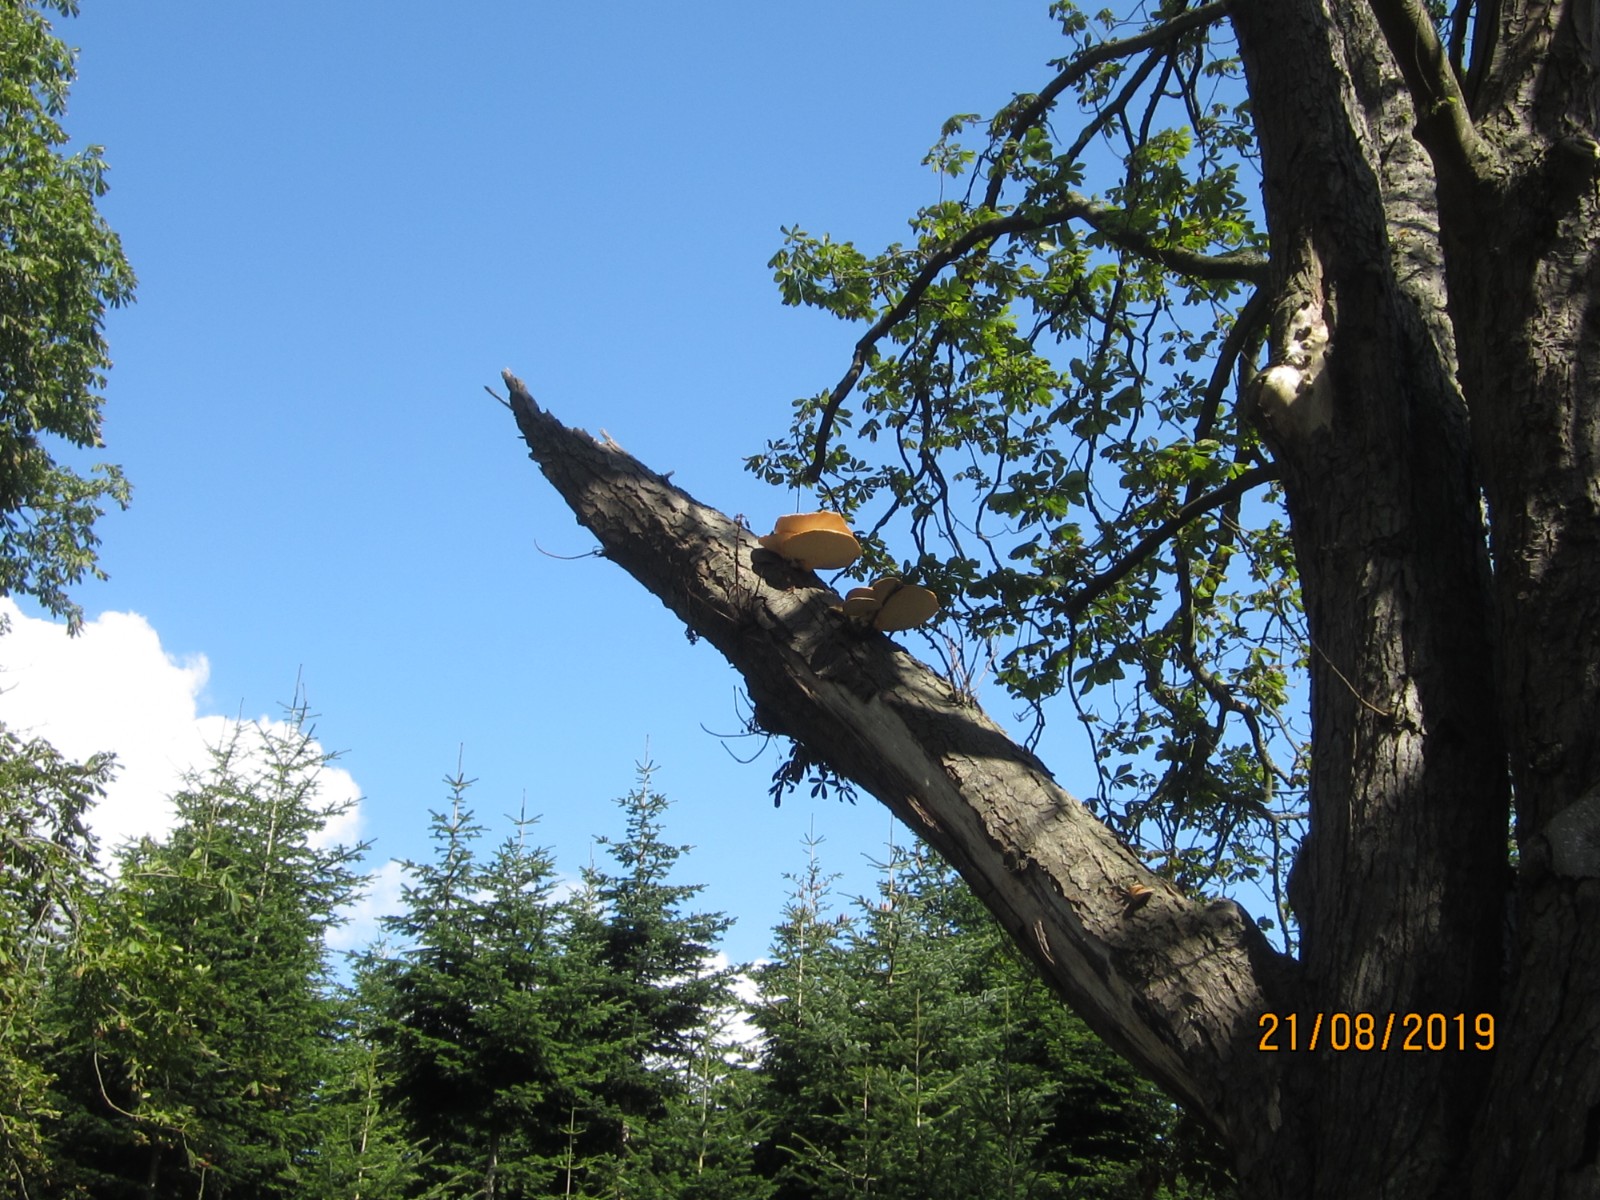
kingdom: Fungi
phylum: Basidiomycota
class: Agaricomycetes
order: Polyporales
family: Polyporaceae
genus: Cerioporus
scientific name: Cerioporus squamosus
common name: skællet stilkporesvamp
